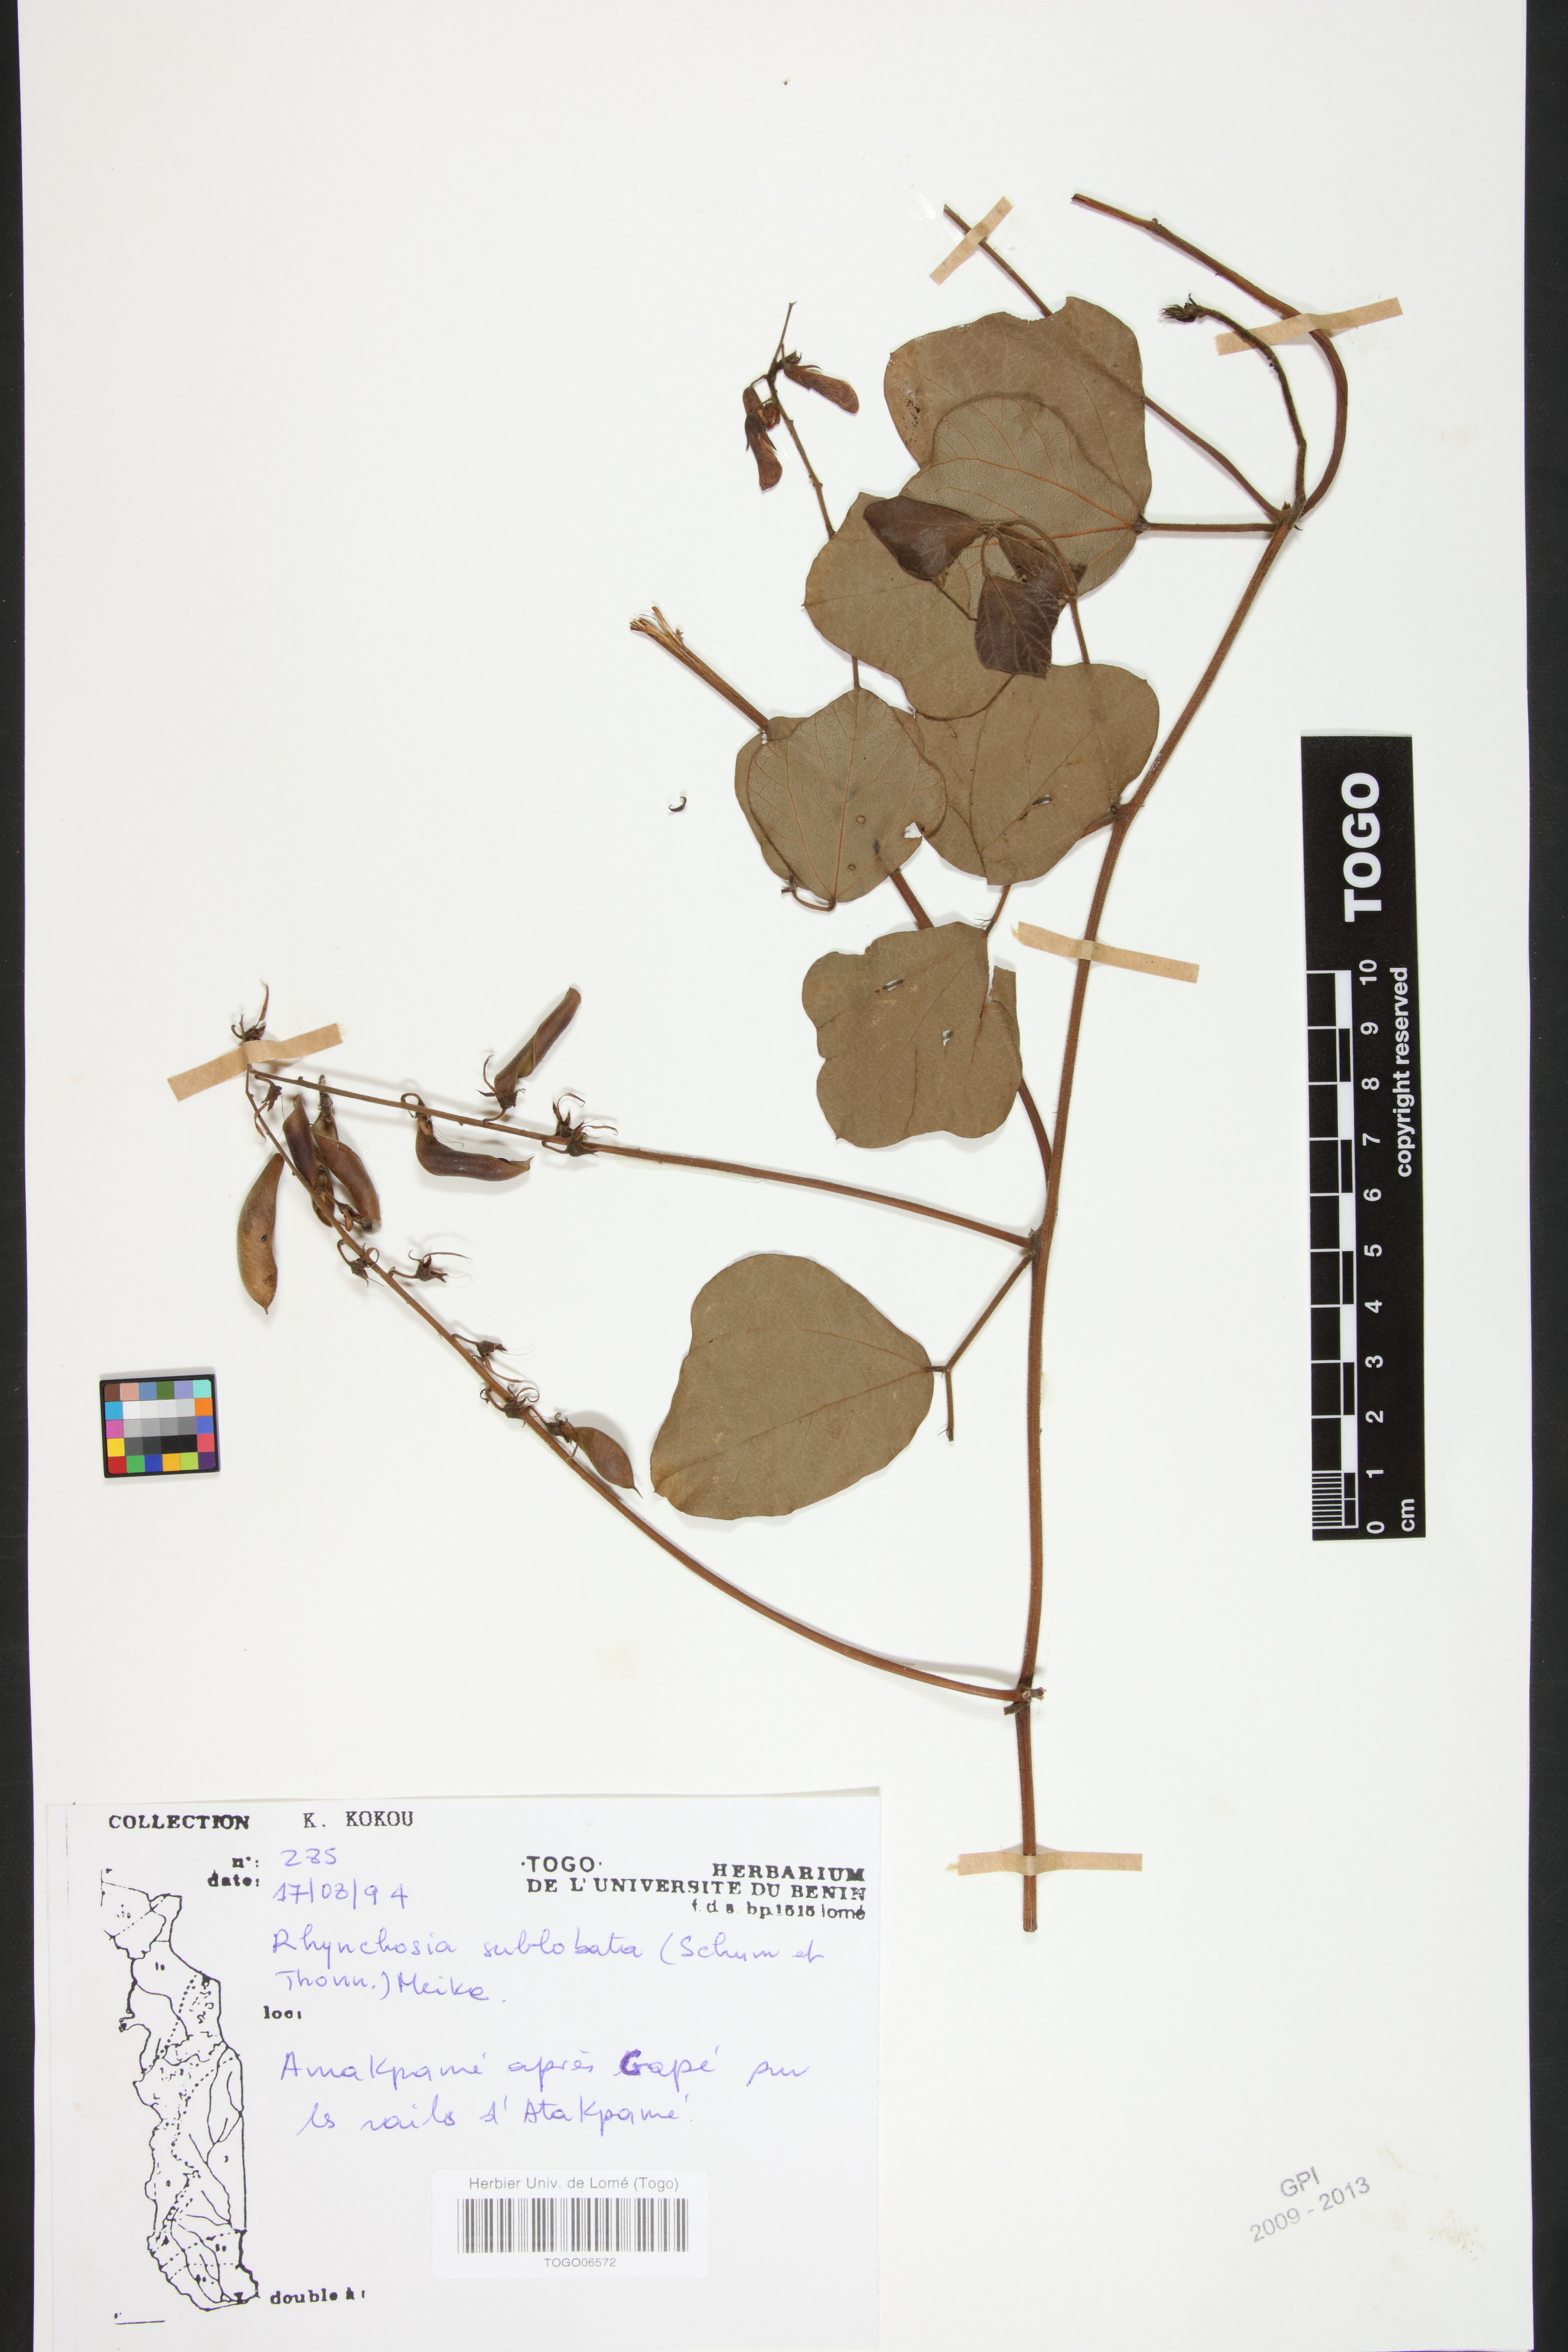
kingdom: Plantae
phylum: Tracheophyta
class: Magnoliopsida
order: Fabales
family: Fabaceae
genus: Rhynchosia
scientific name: Rhynchosia sublobata
